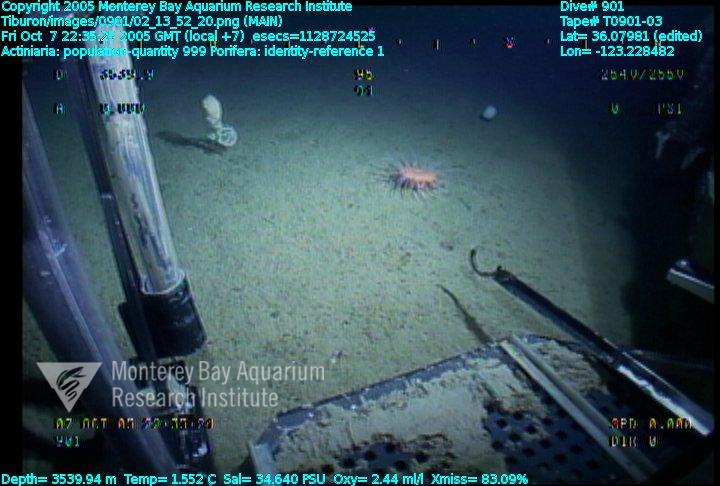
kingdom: Animalia
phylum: Porifera
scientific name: Porifera
